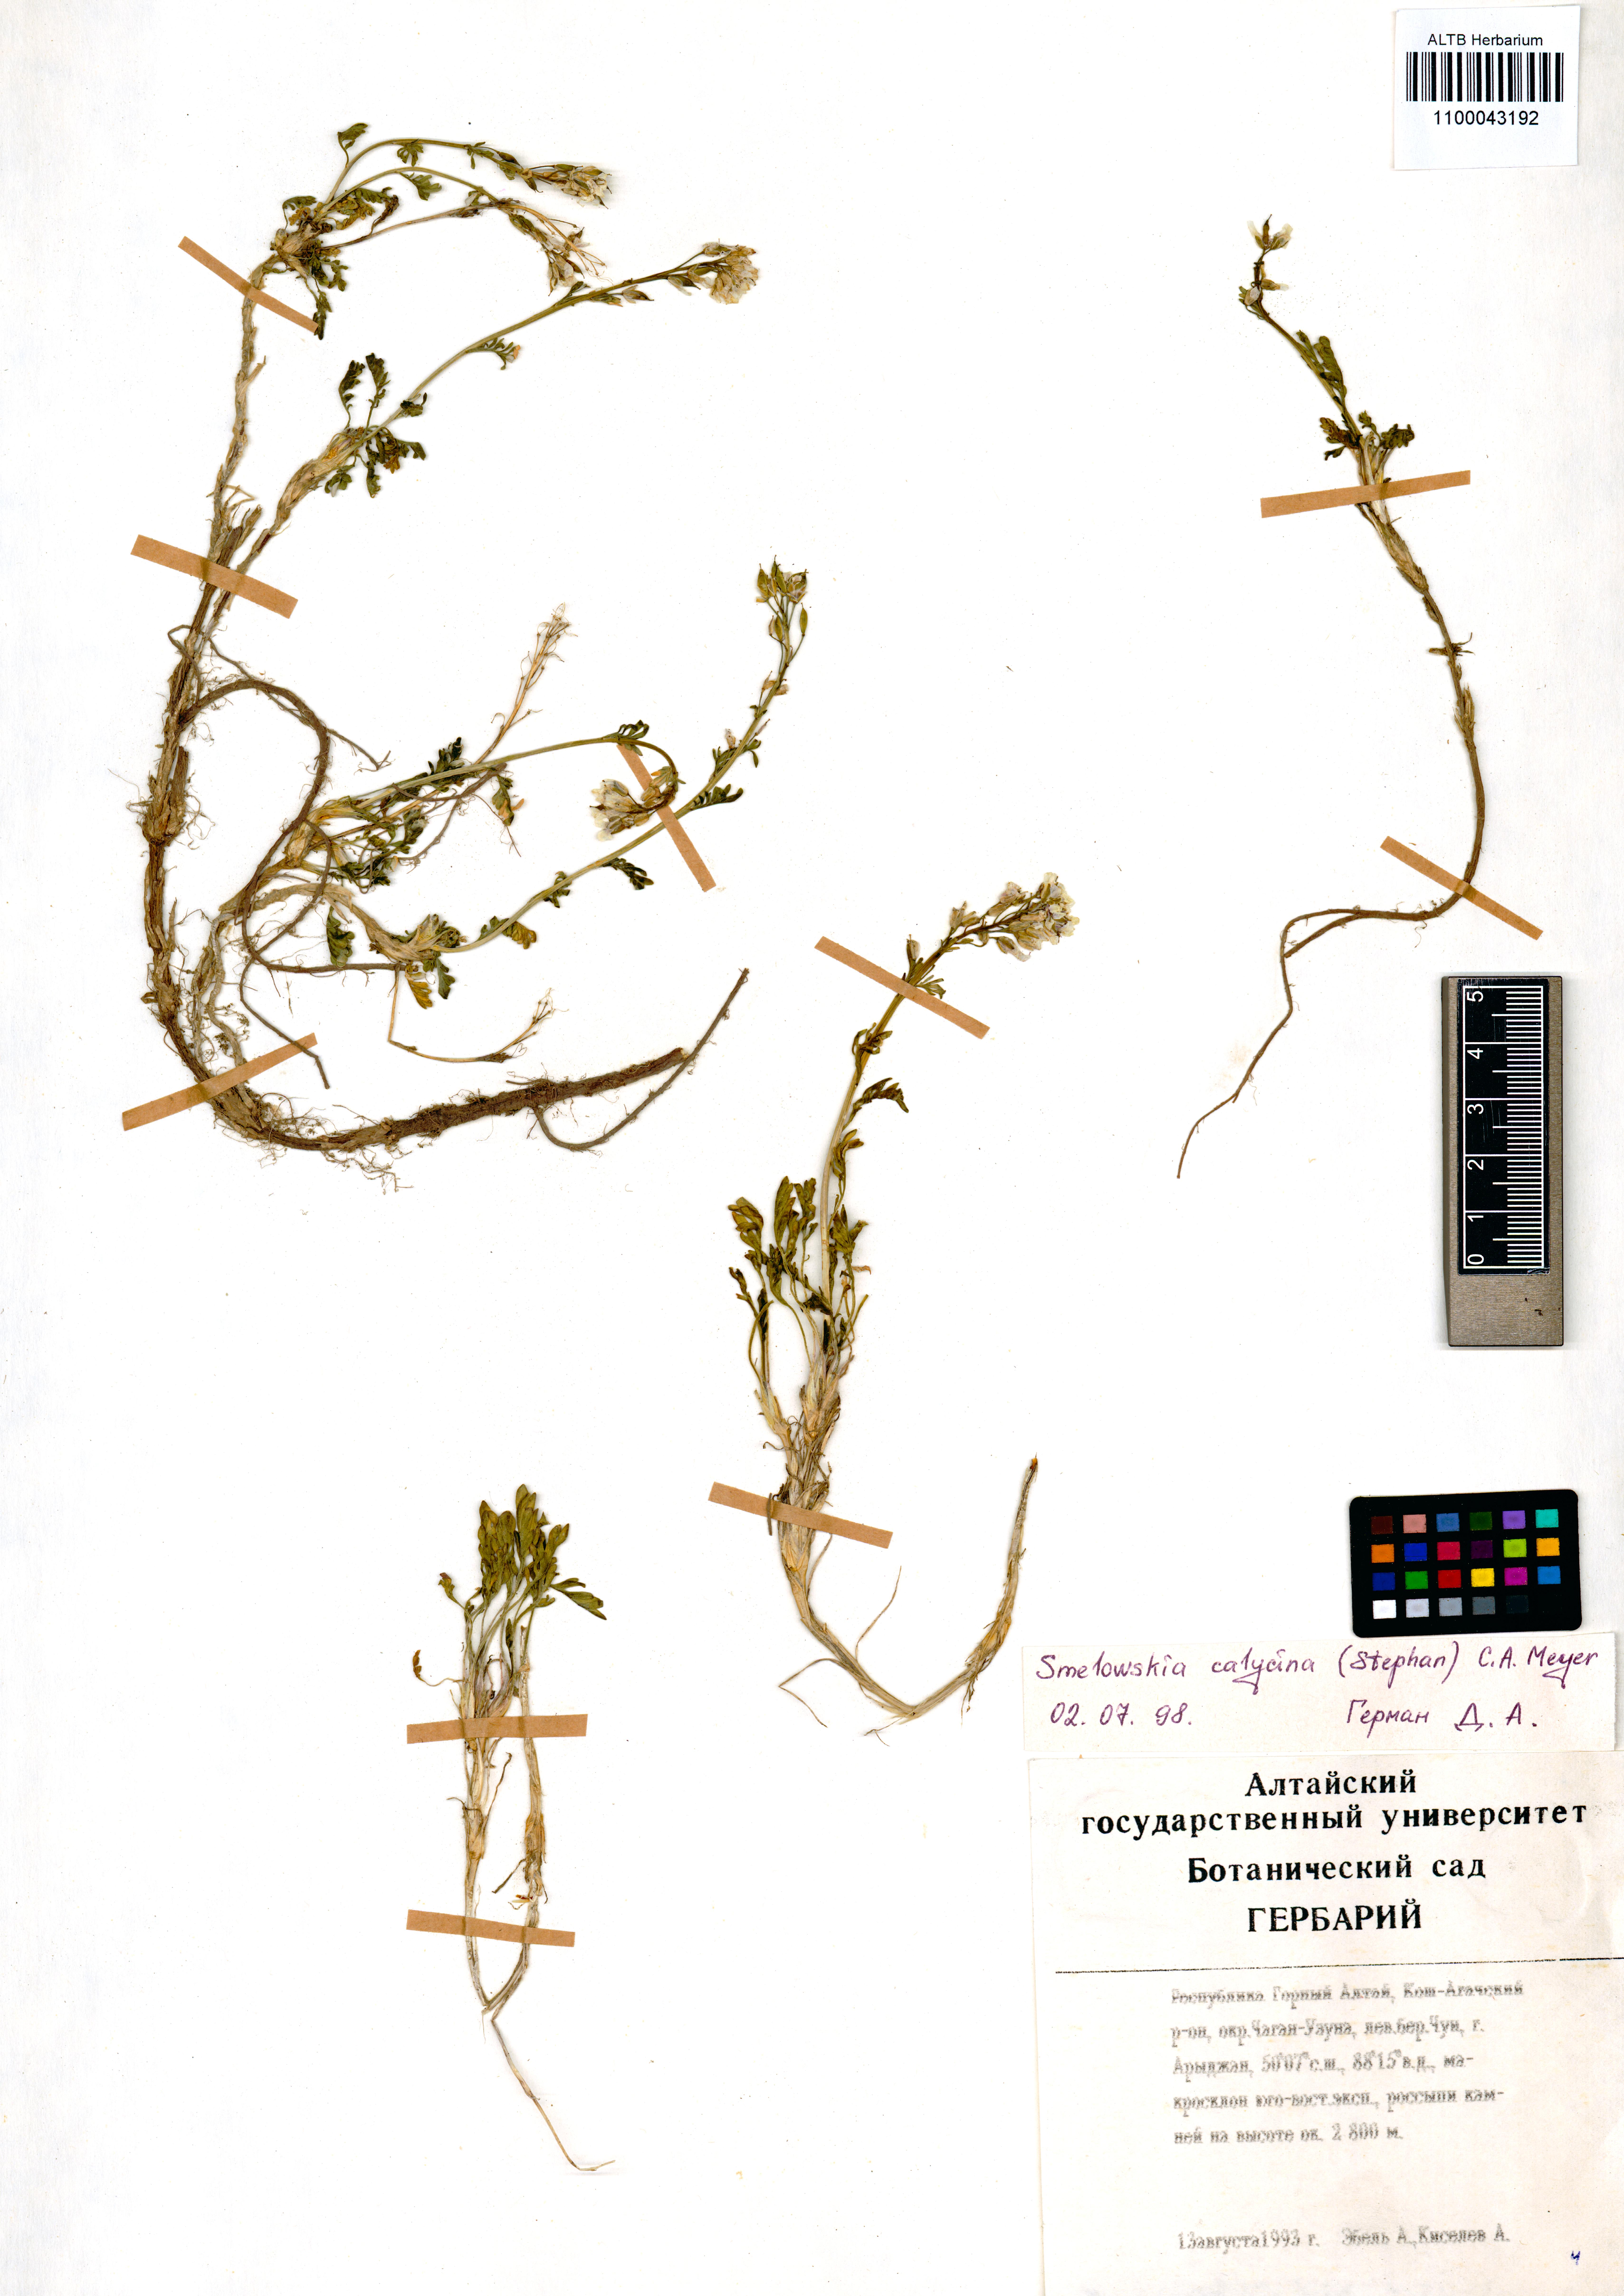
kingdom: Plantae
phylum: Tracheophyta
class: Magnoliopsida
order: Brassicales
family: Brassicaceae
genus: Smelowskia
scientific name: Smelowskia calycina
